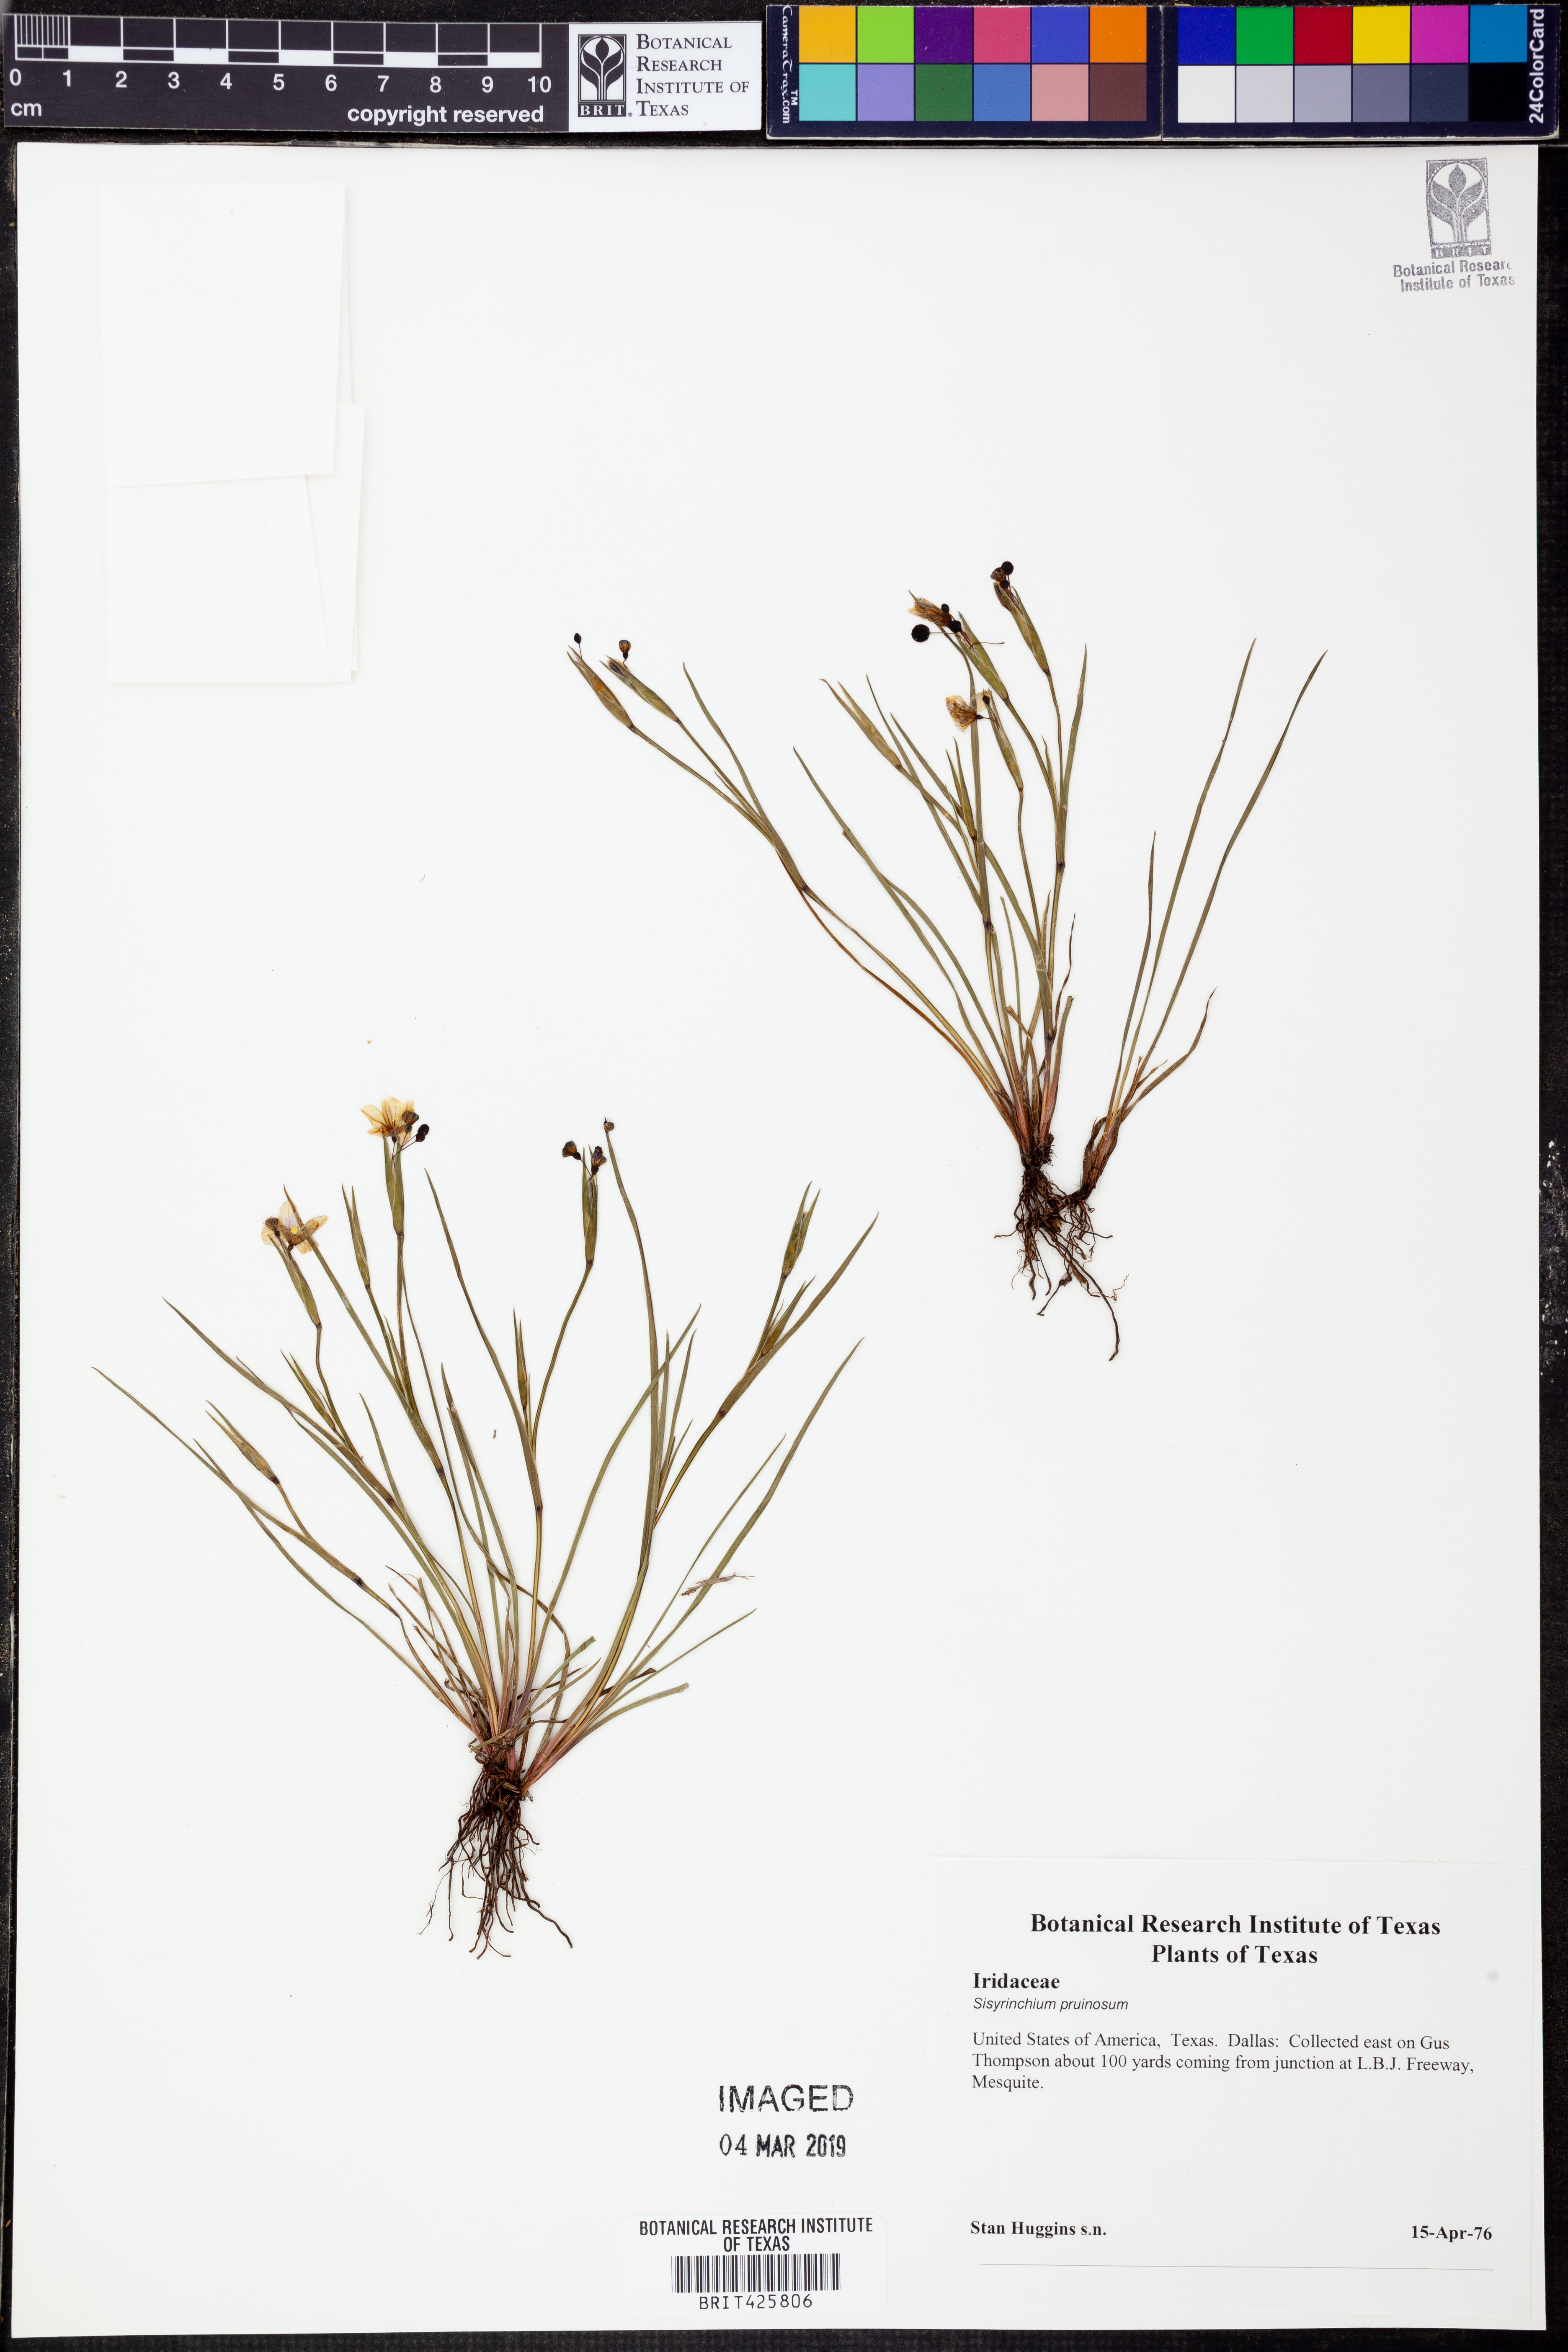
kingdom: Plantae
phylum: Tracheophyta
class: Liliopsida
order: Asparagales
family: Iridaceae
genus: Sisyrinchium
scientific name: Sisyrinchium pruinosum
